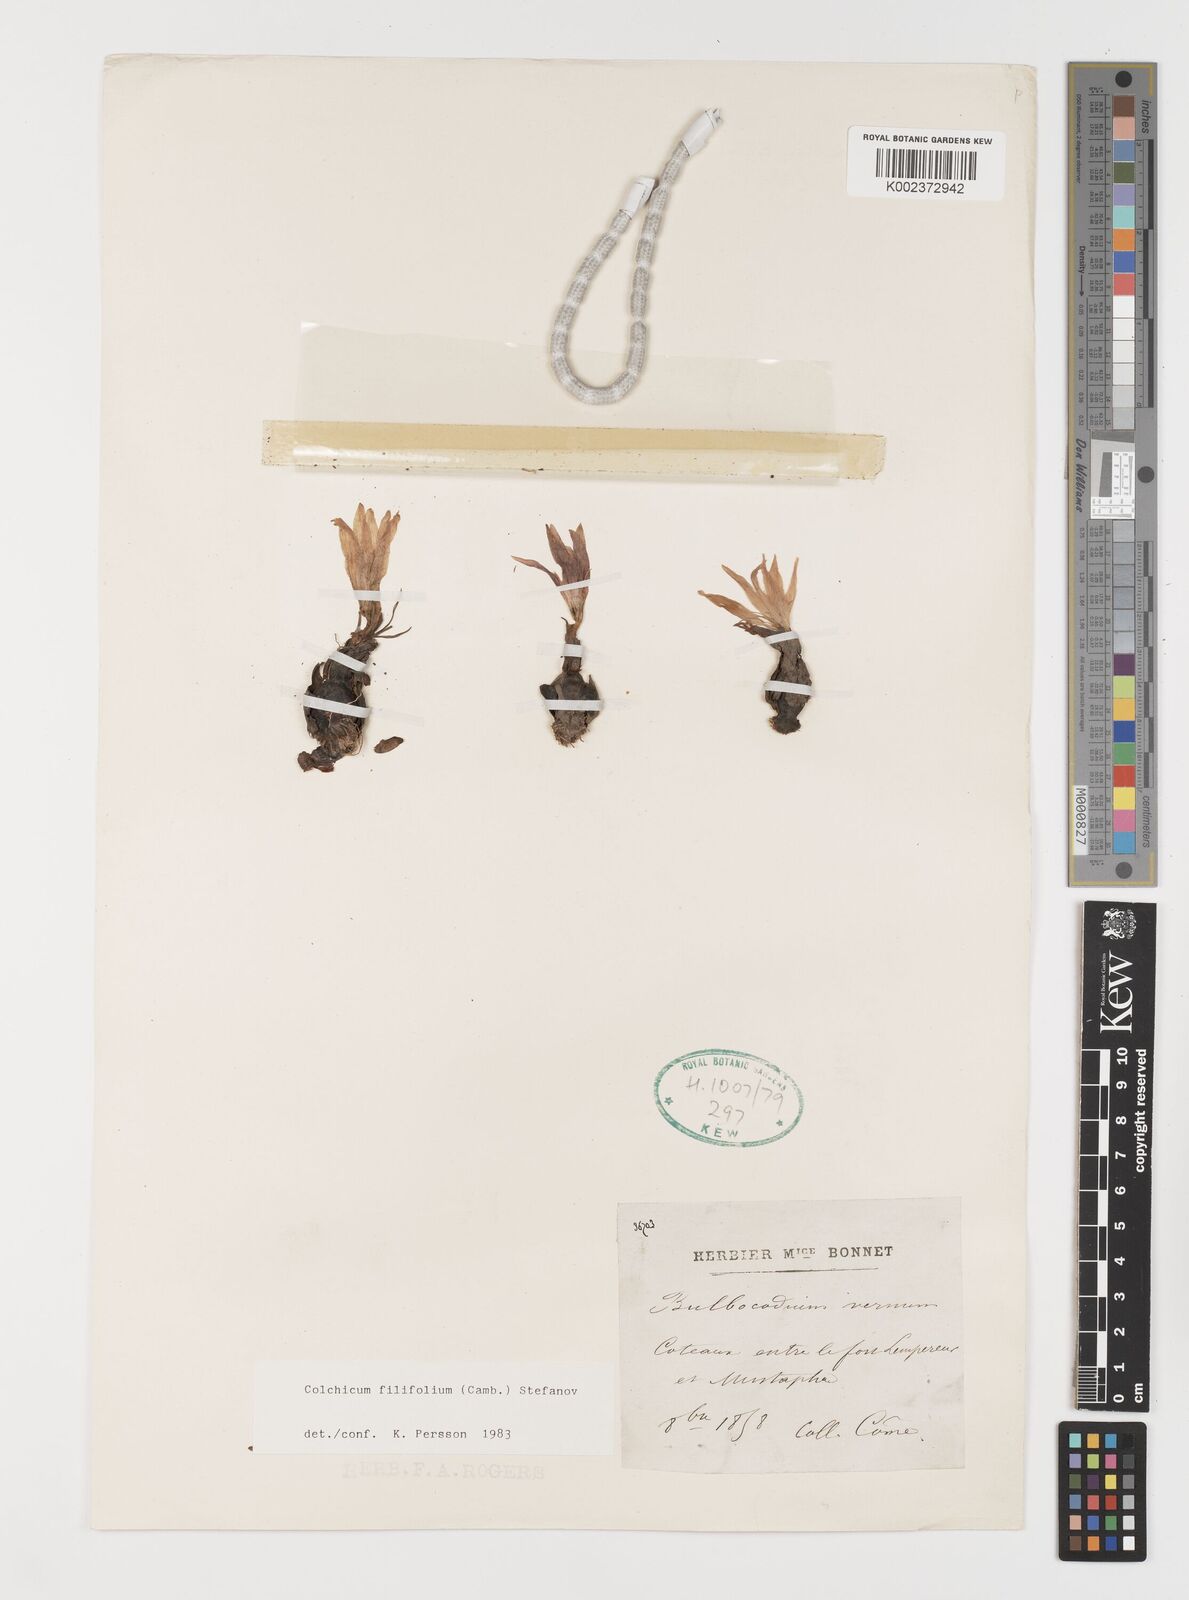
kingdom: Plantae
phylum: Tracheophyta
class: Liliopsida
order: Liliales
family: Colchicaceae
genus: Colchicum
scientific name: Colchicum filifolium
